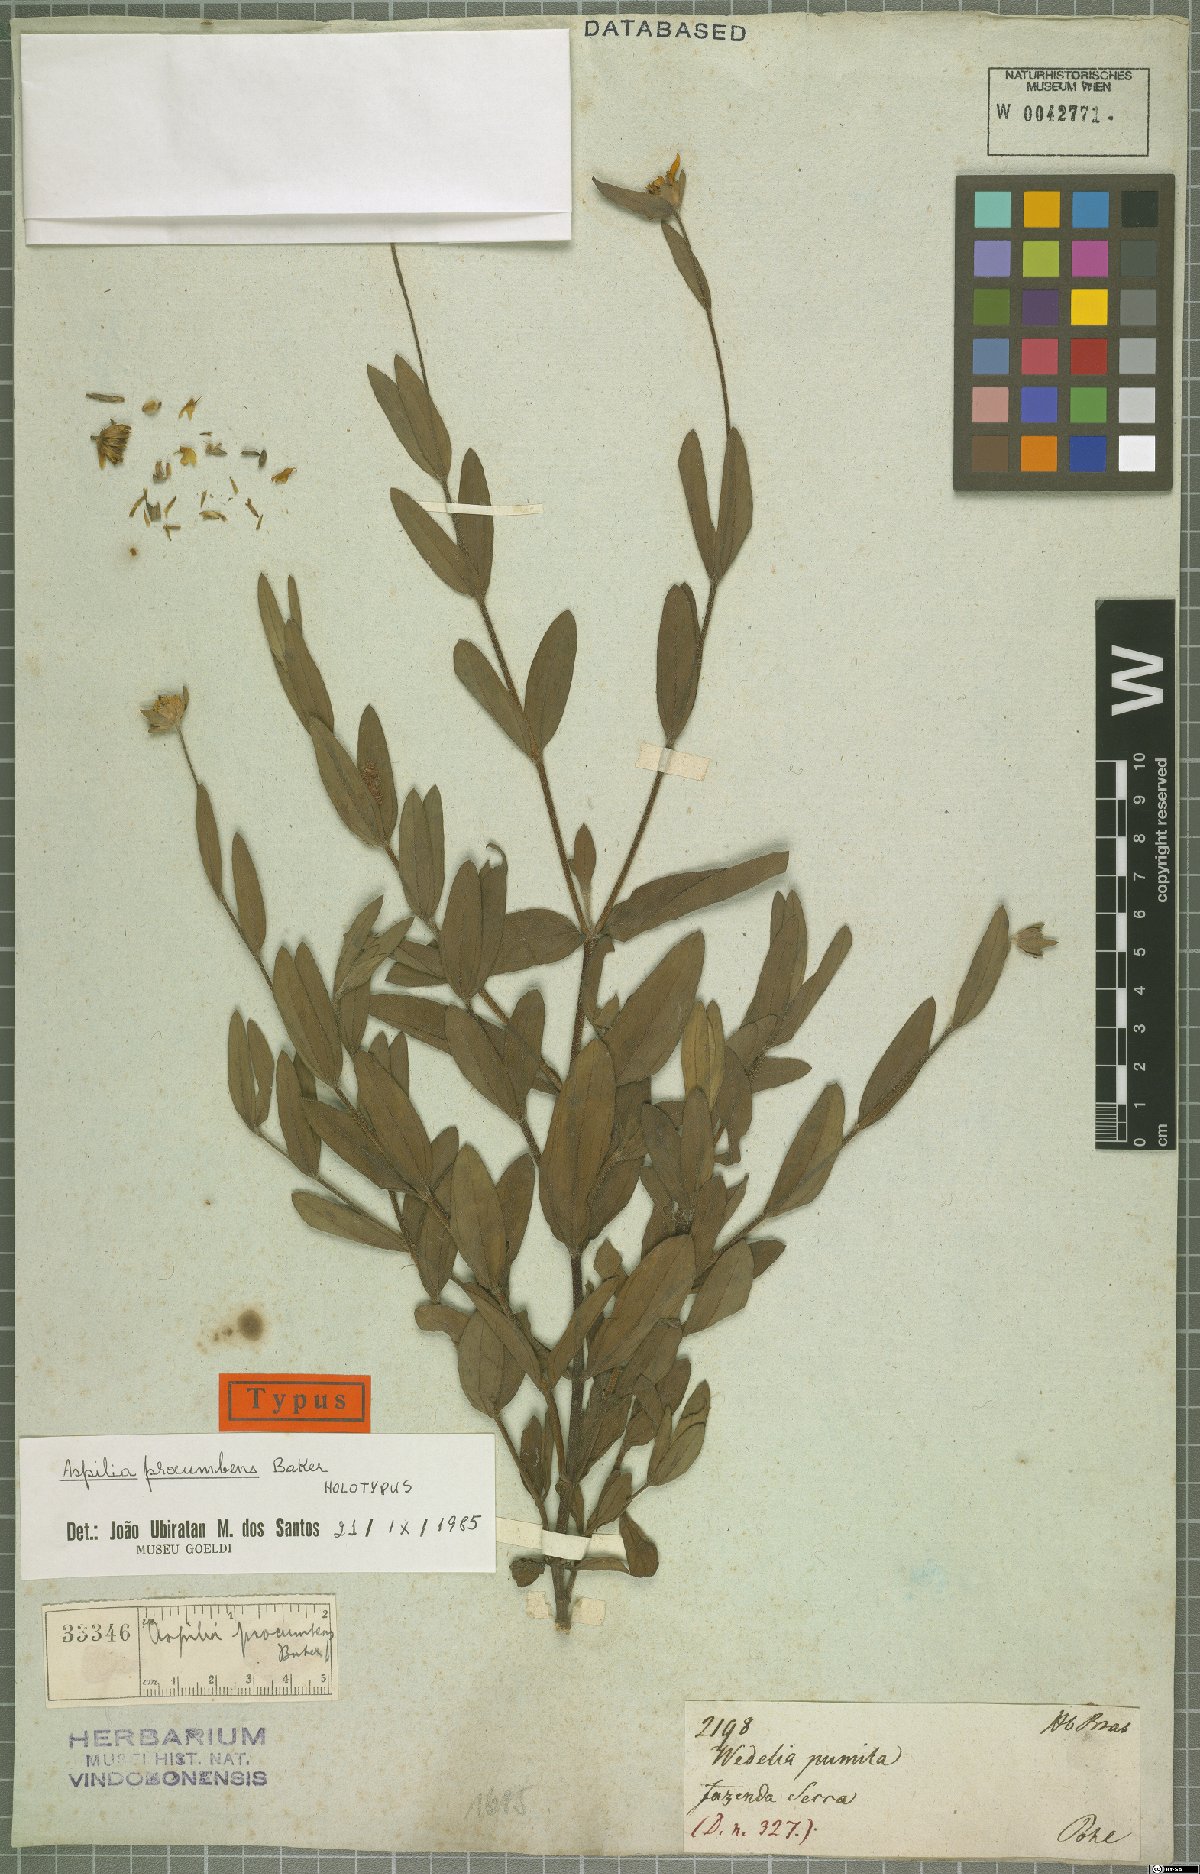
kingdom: Plantae
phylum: Tracheophyta
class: Magnoliopsida
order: Asterales
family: Asteraceae
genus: Wedelia
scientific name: Wedelia procumbens
